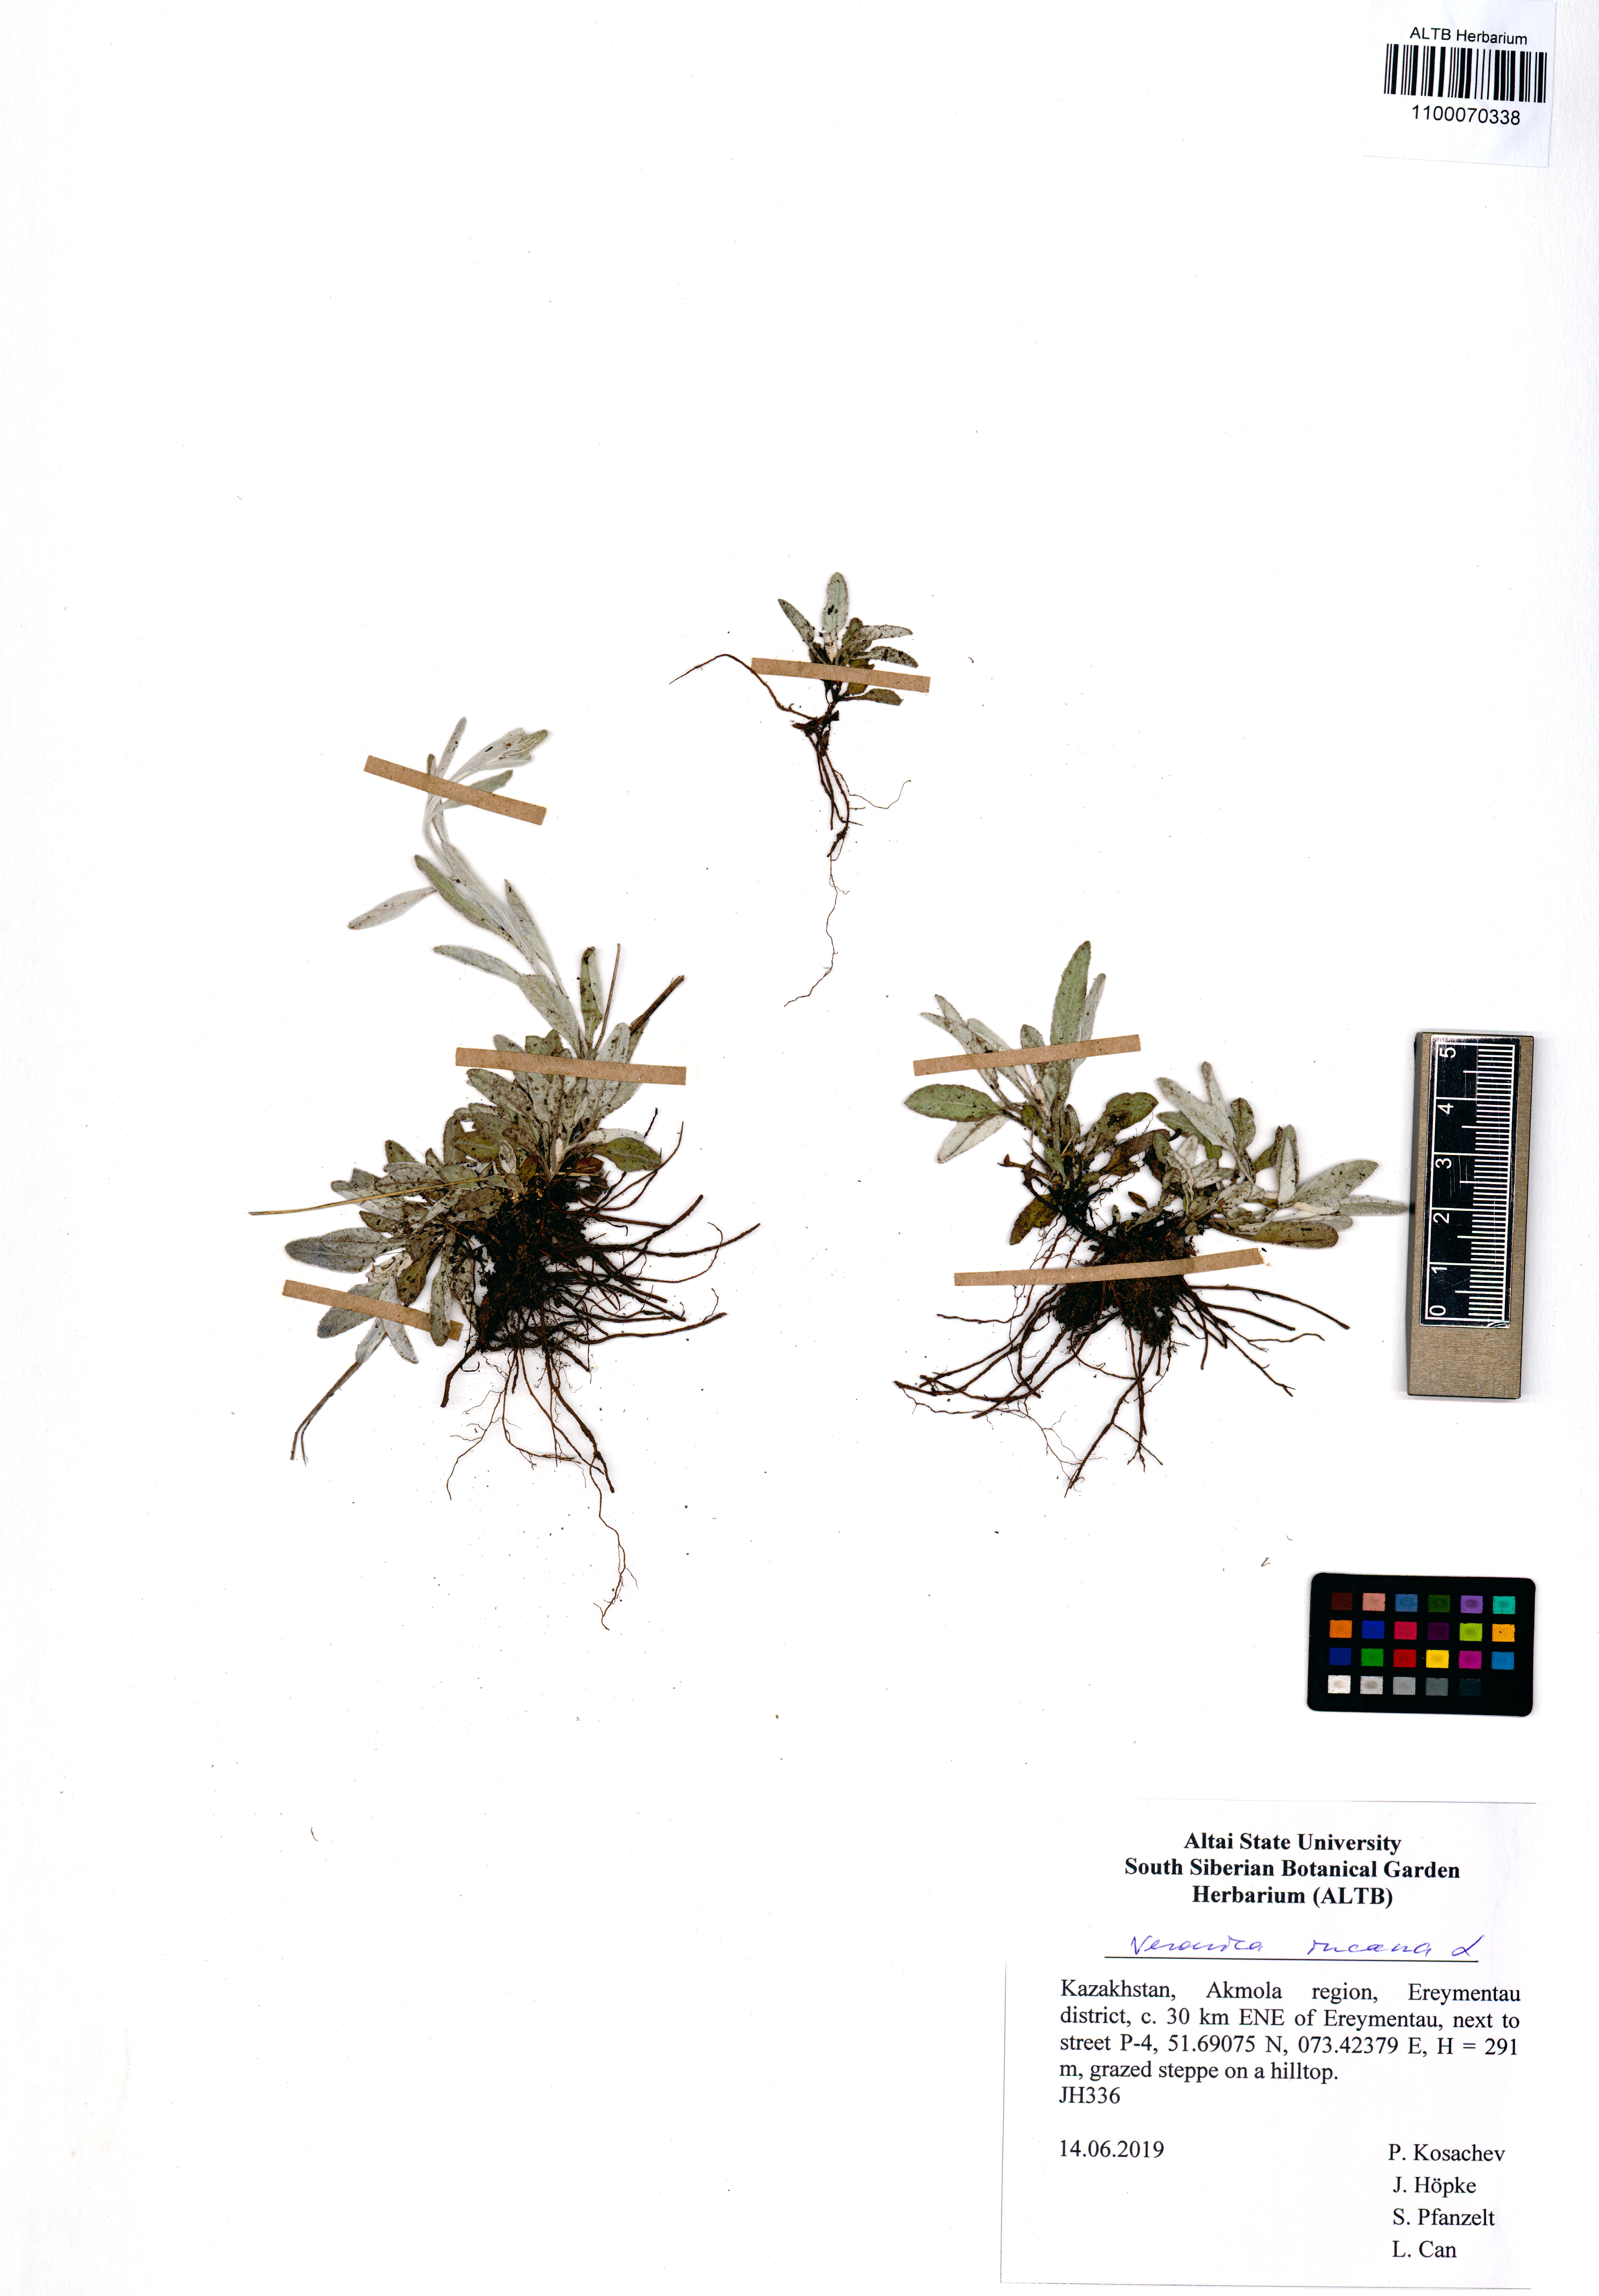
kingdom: Plantae
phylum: Tracheophyta
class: Magnoliopsida
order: Lamiales
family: Plantaginaceae
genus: Veronica
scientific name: Veronica incana
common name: Silver speedwell
